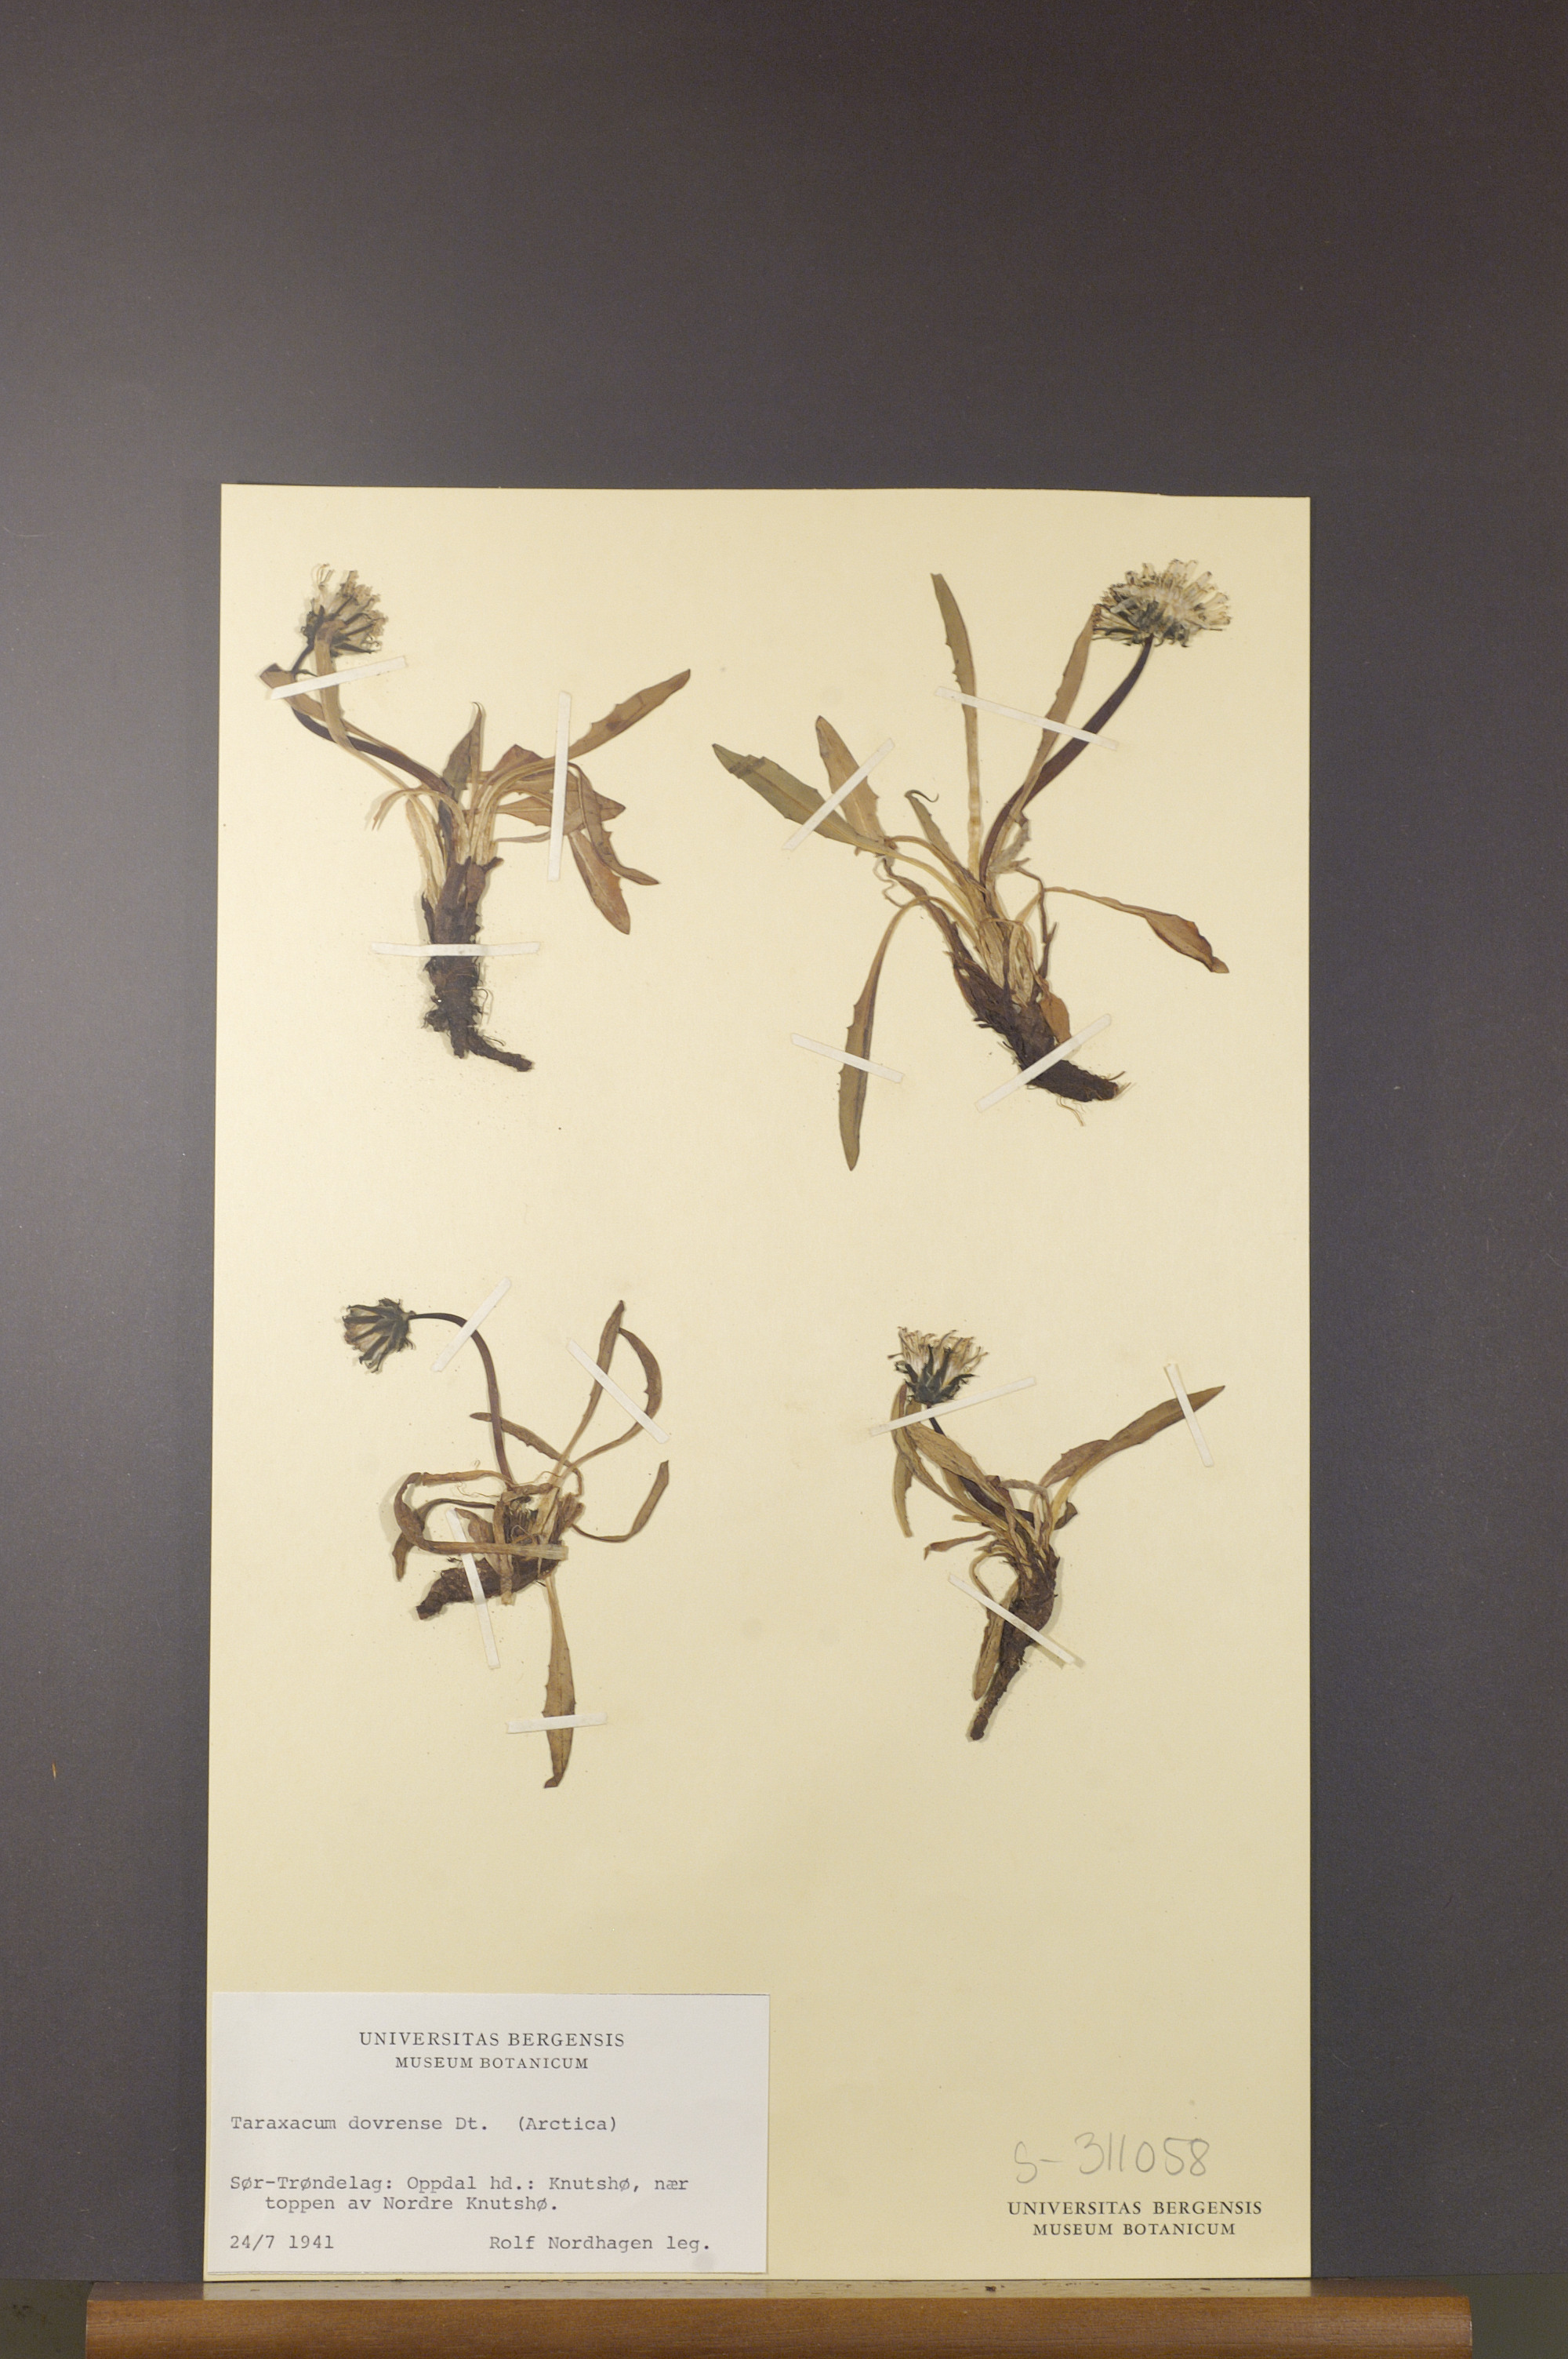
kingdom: Plantae
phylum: Tracheophyta
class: Magnoliopsida
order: Asterales
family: Asteraceae
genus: Taraxacum
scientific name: Taraxacum dovrense
